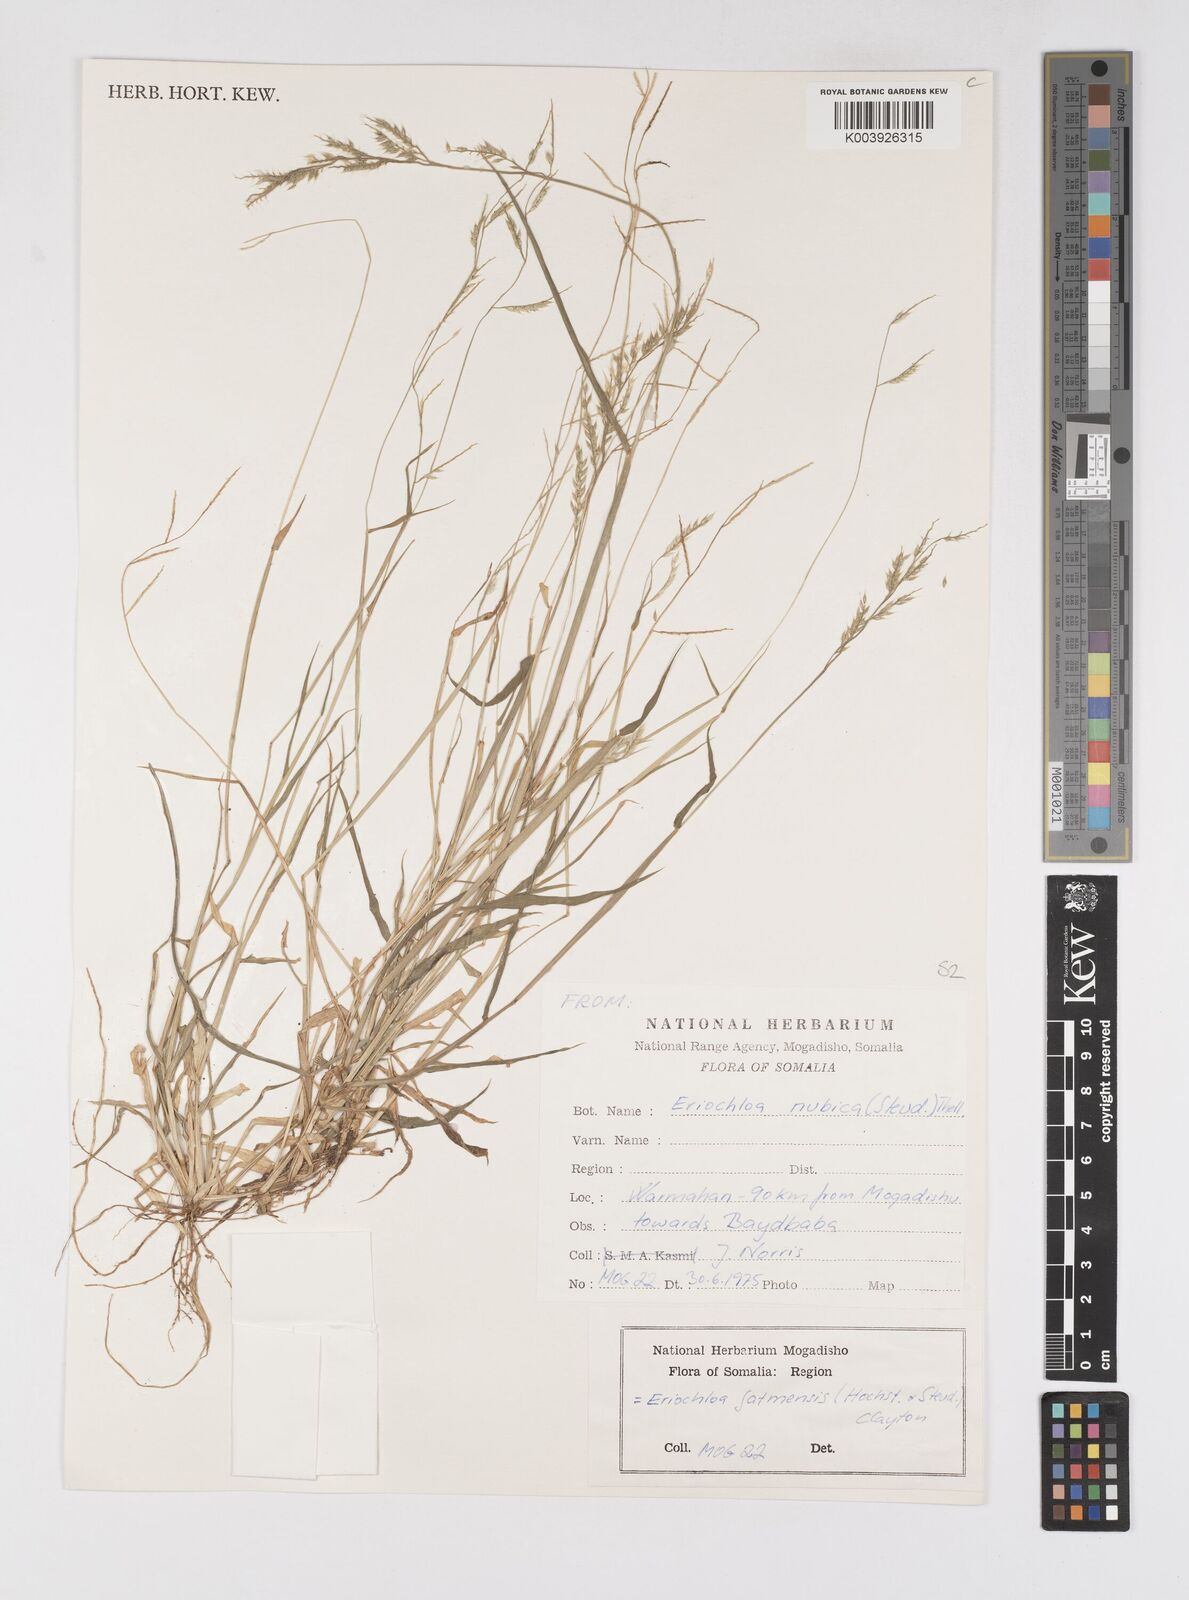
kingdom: Plantae
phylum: Tracheophyta
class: Liliopsida
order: Poales
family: Poaceae
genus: Eriochloa
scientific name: Eriochloa barbatus
